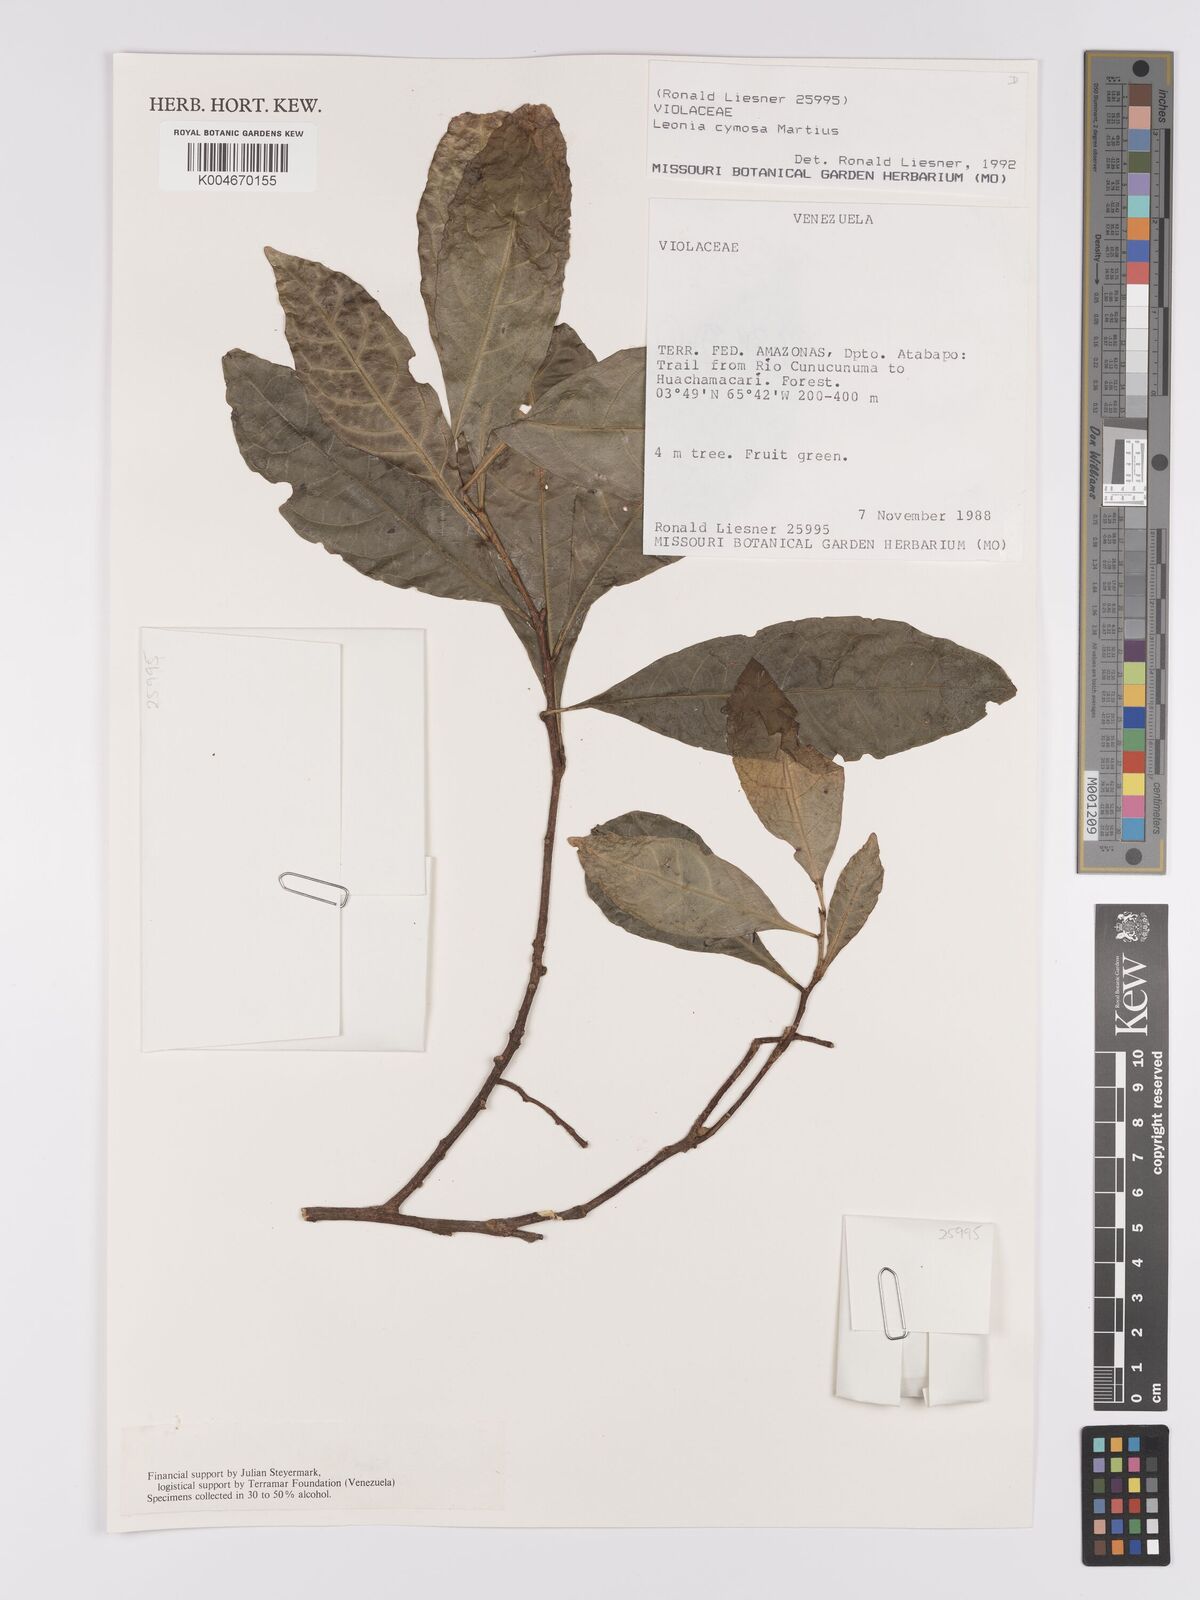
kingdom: Plantae
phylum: Tracheophyta
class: Magnoliopsida
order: Malpighiales
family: Violaceae
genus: Leonia
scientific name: Leonia cymosa
